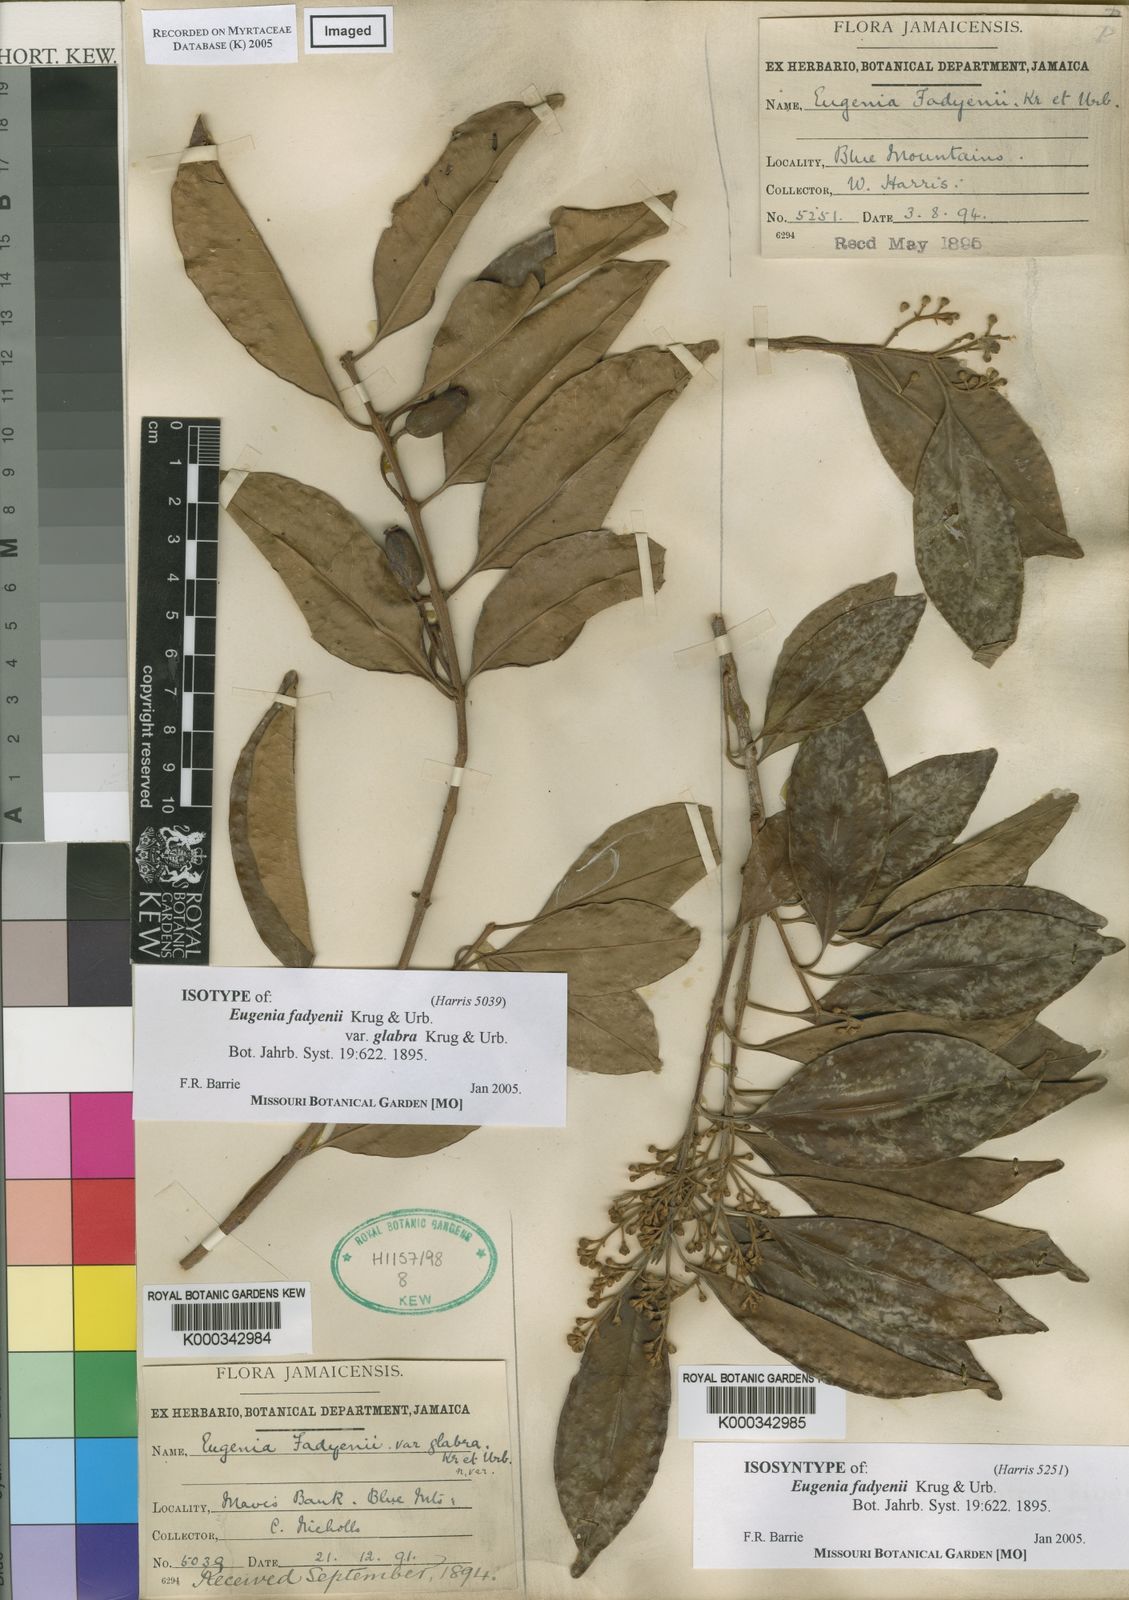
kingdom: Plantae
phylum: Tracheophyta
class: Magnoliopsida
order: Myrtales
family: Myrtaceae
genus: Eugenia
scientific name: Eugenia aeruginea
